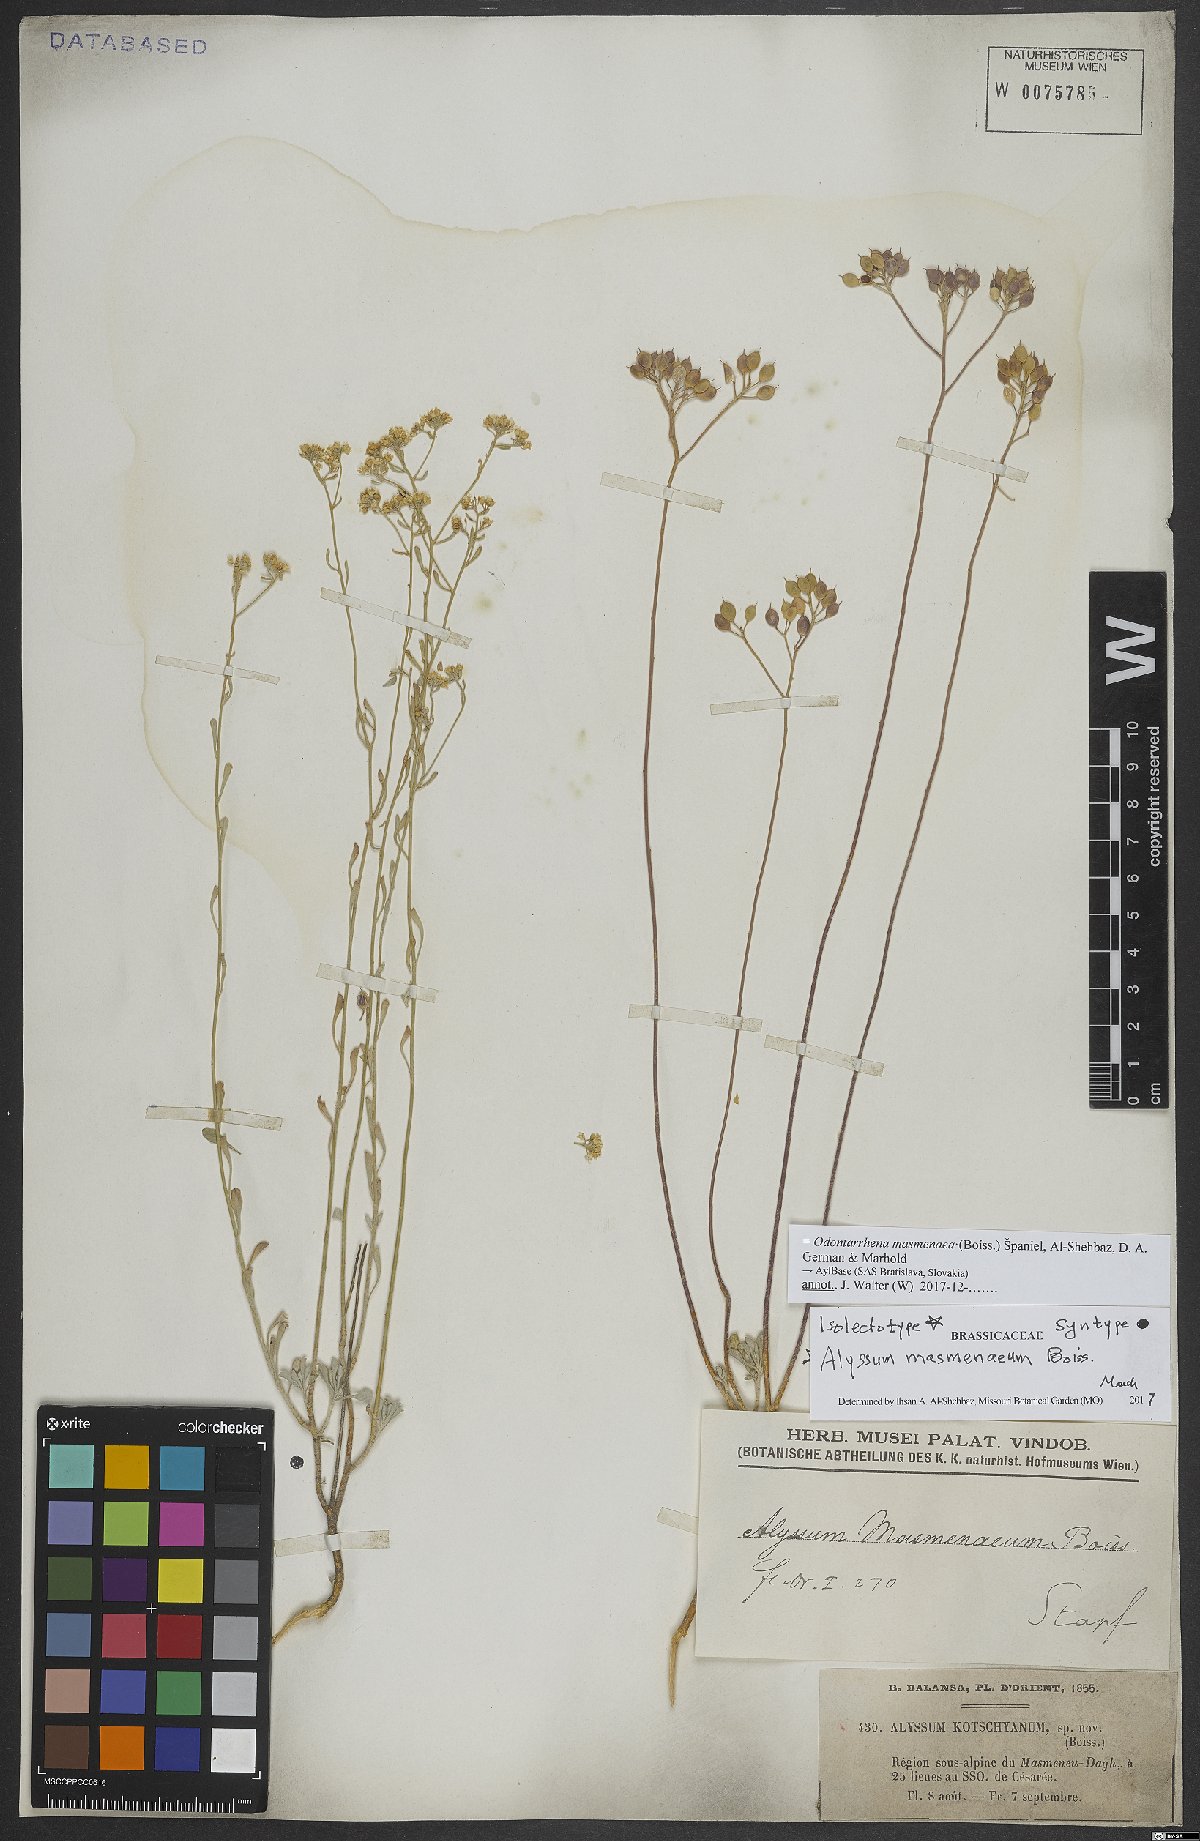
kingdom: Plantae
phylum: Tracheophyta
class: Magnoliopsida
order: Brassicales
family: Brassicaceae
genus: Odontarrhena
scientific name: Odontarrhena masmenaea
